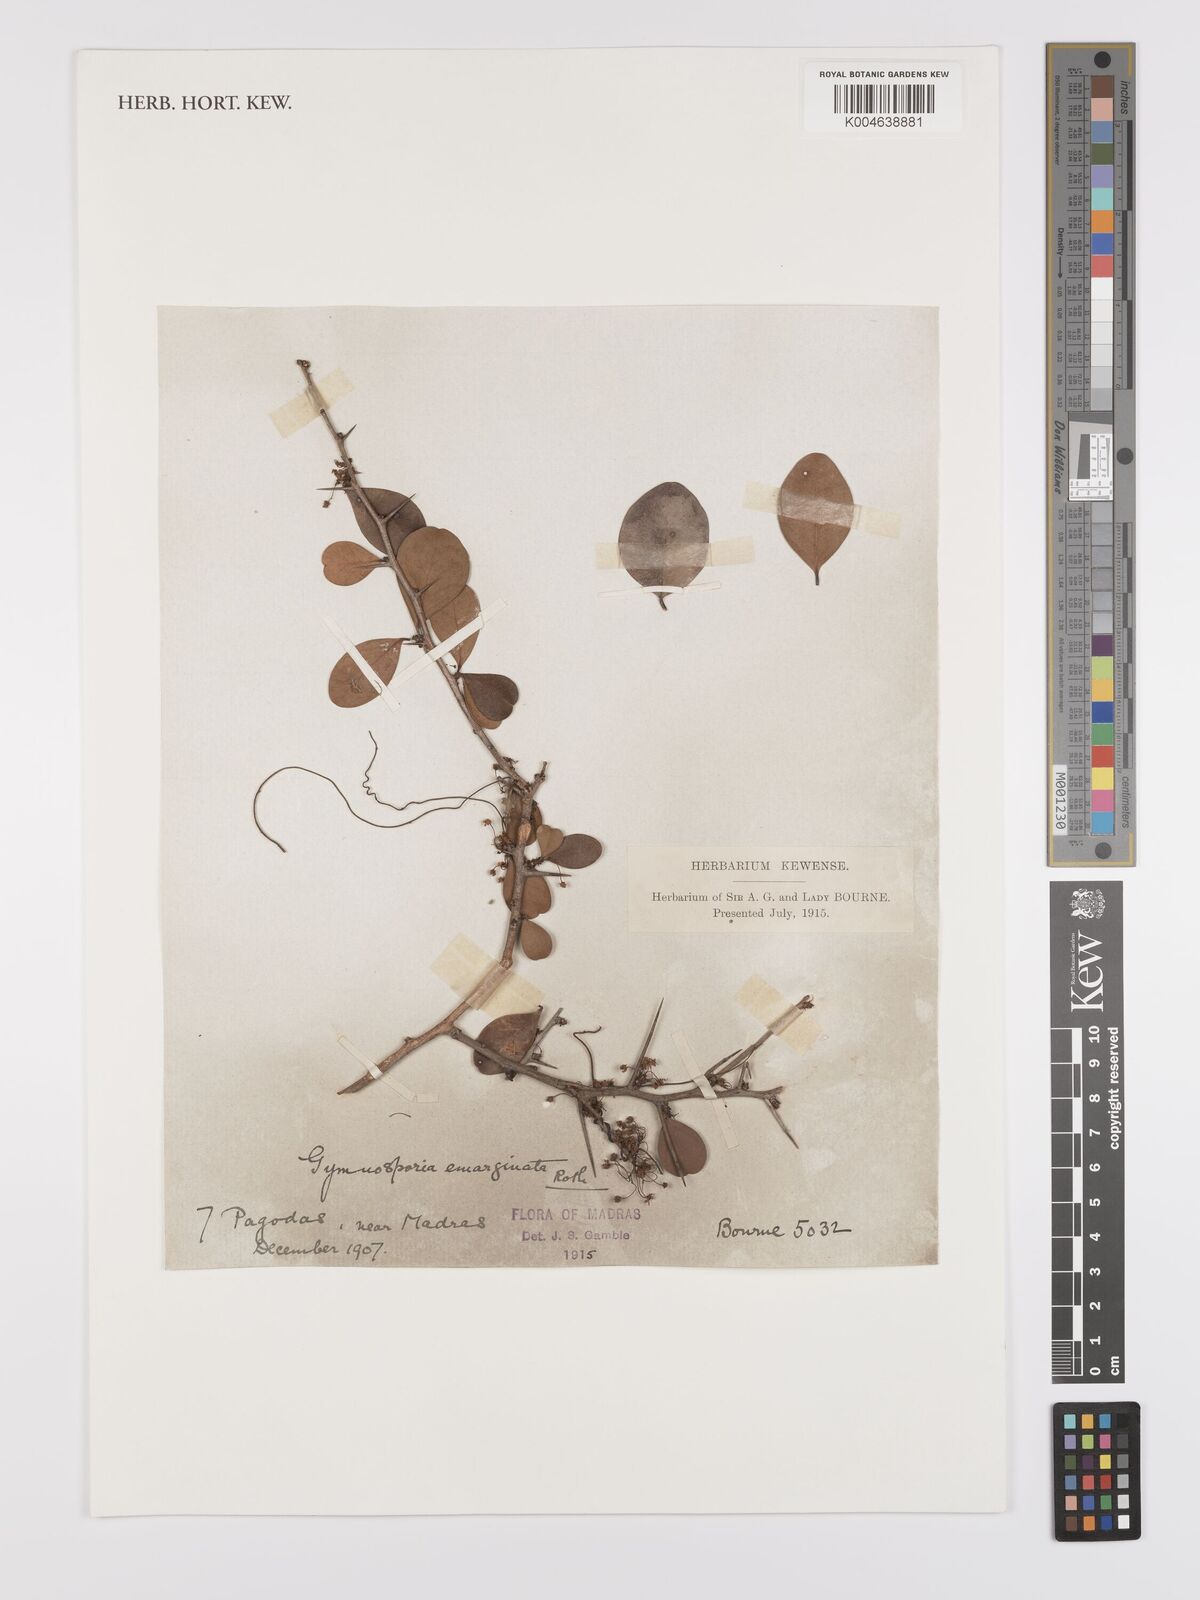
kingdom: Plantae
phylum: Tracheophyta
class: Magnoliopsida
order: Celastrales
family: Celastraceae
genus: Gymnosporia
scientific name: Gymnosporia emarginata
